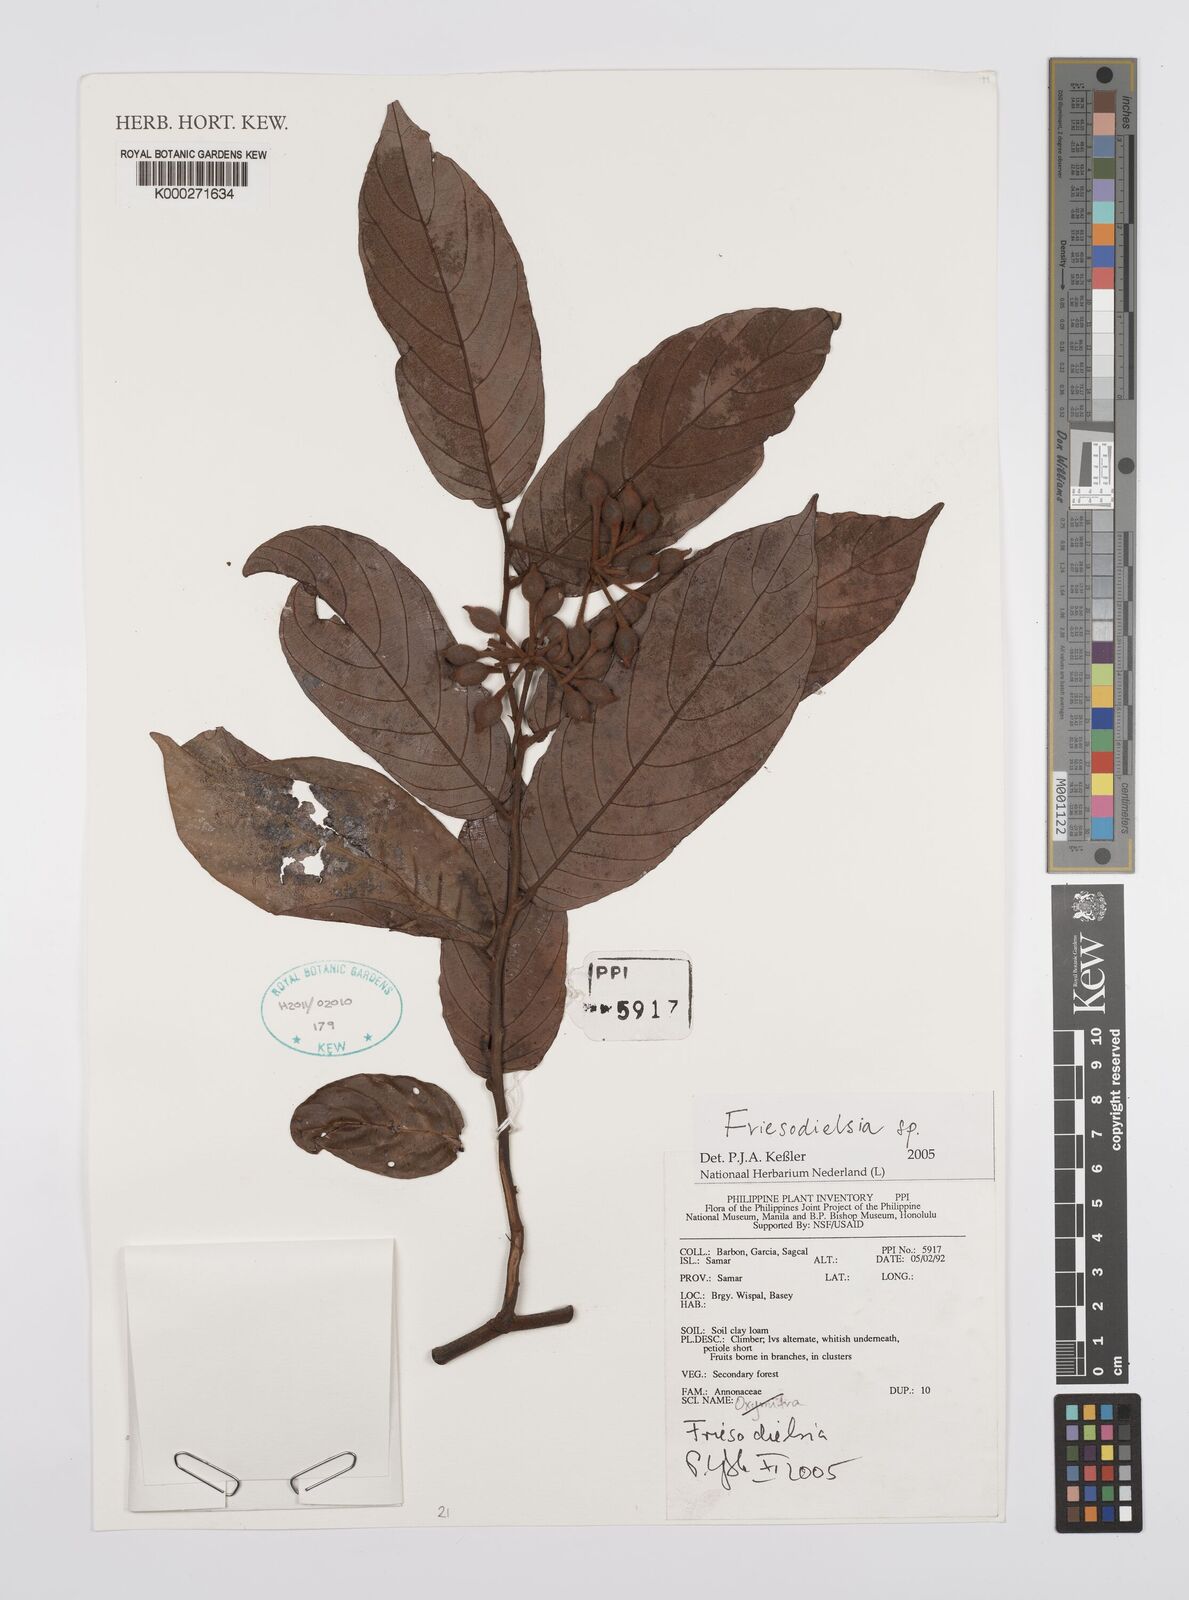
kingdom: Plantae
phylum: Tracheophyta
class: Magnoliopsida
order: Magnoliales
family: Annonaceae
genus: Friesodielsia
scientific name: Friesodielsia
